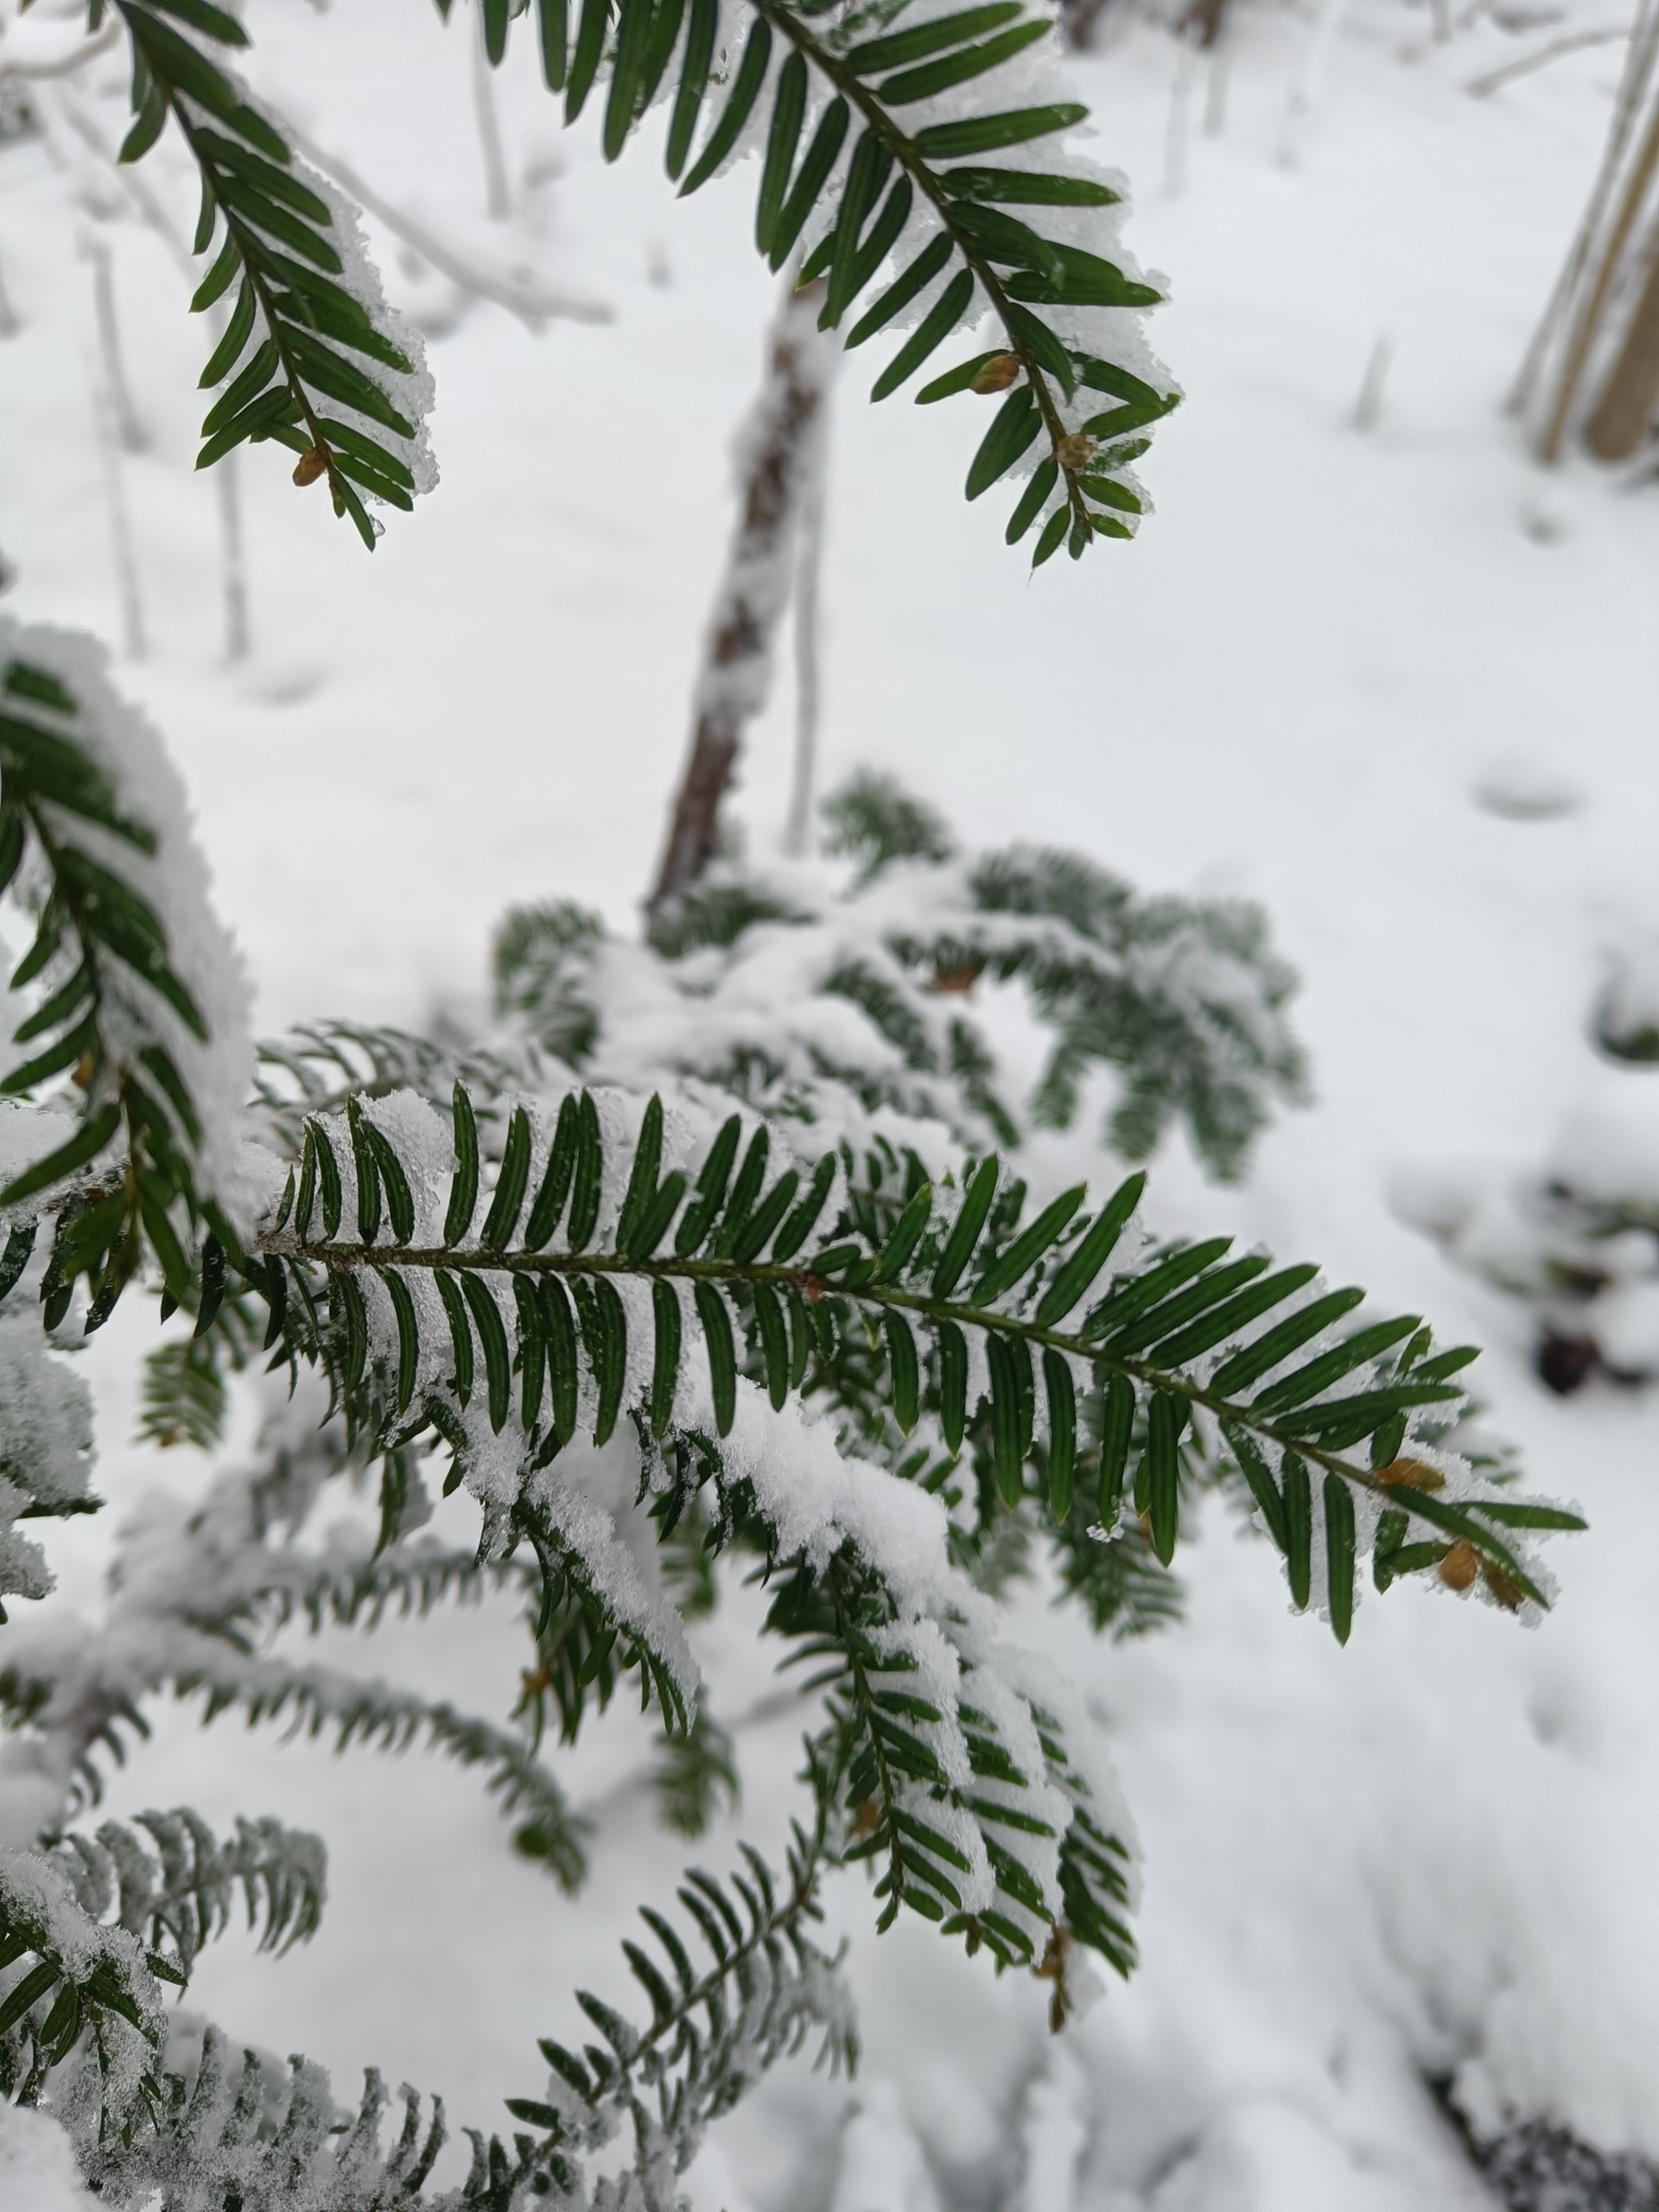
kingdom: Plantae
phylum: Tracheophyta
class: Pinopsida
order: Pinales
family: Taxaceae
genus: Taxus
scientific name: Taxus baccata
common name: Almindelig taks
